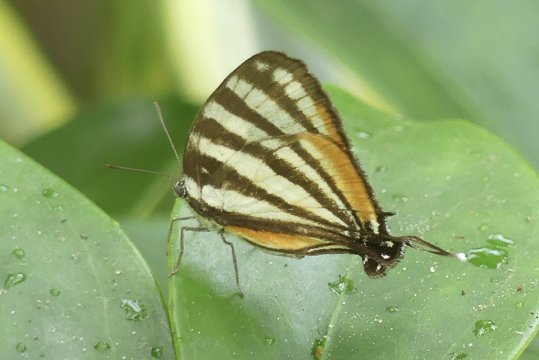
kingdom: Animalia
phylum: Arthropoda
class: Insecta
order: Lepidoptera
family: Lycaenidae
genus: Arawacus
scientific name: Arawacus togarna
